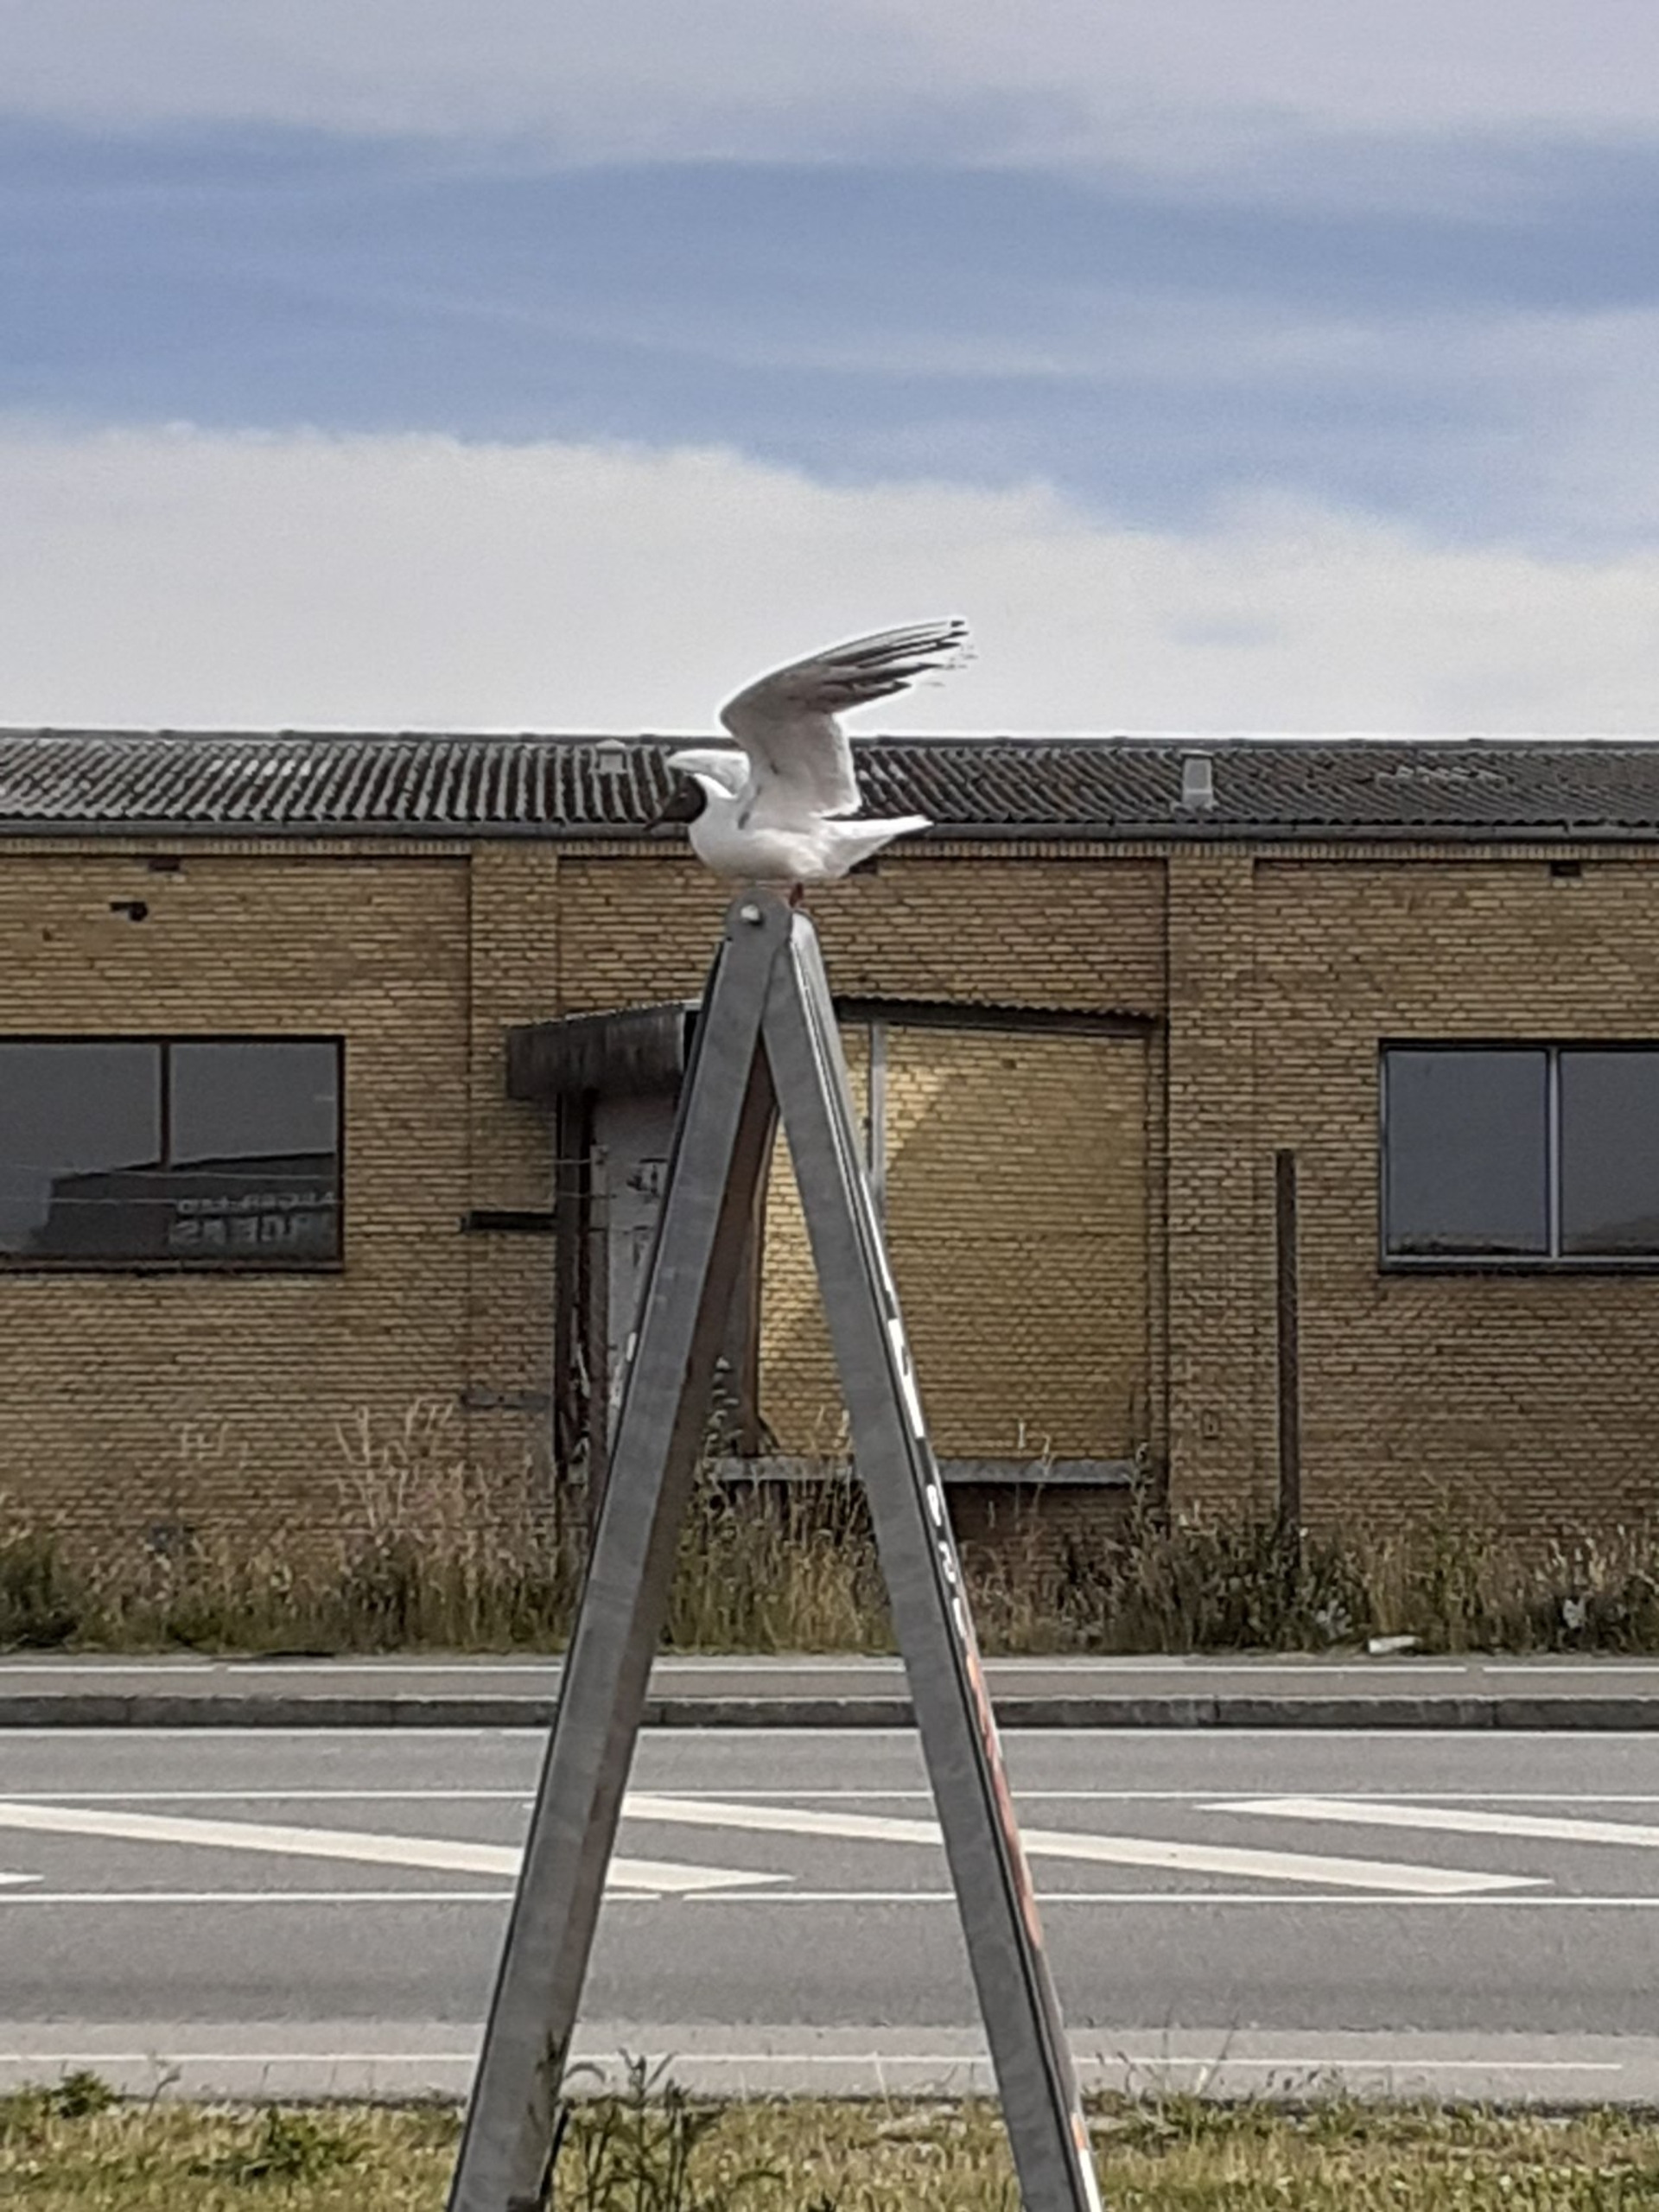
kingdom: Animalia
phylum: Chordata
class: Aves
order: Charadriiformes
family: Laridae
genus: Chroicocephalus
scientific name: Chroicocephalus ridibundus
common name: Hættemåge
